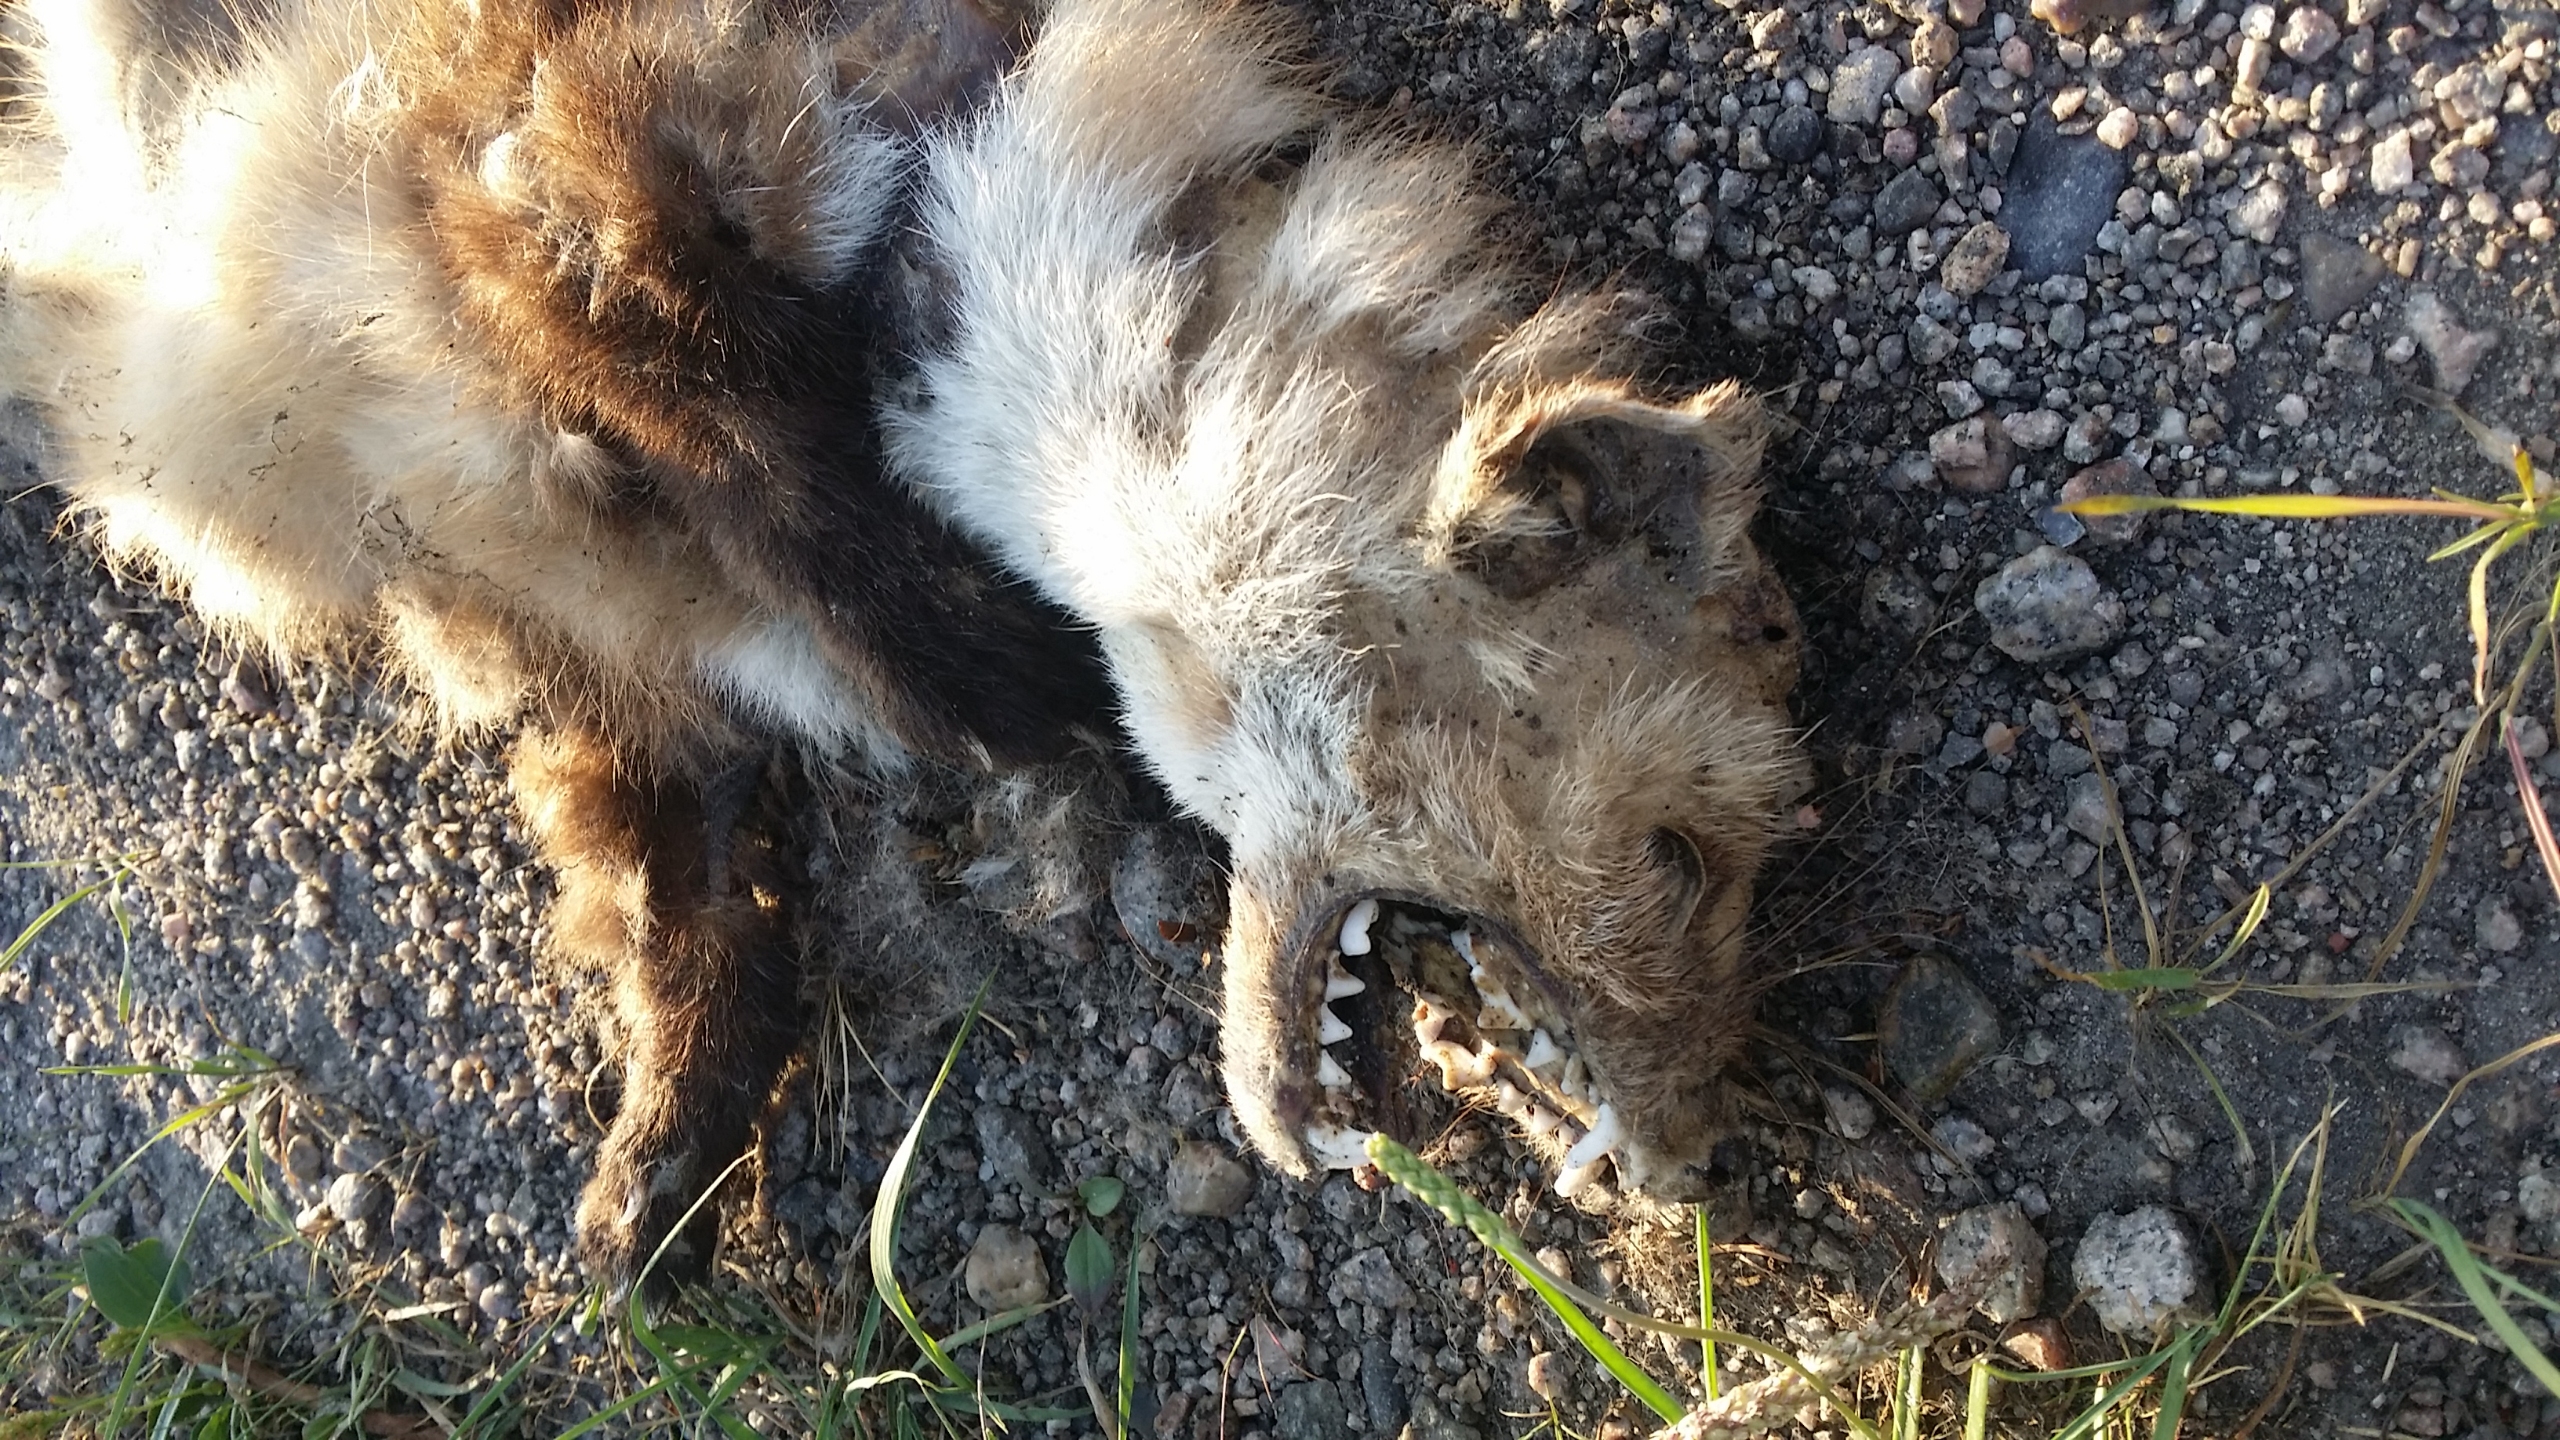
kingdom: Animalia
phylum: Chordata
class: Mammalia
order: Carnivora
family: Mustelidae
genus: Martes
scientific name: Martes foina
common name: Husmår
